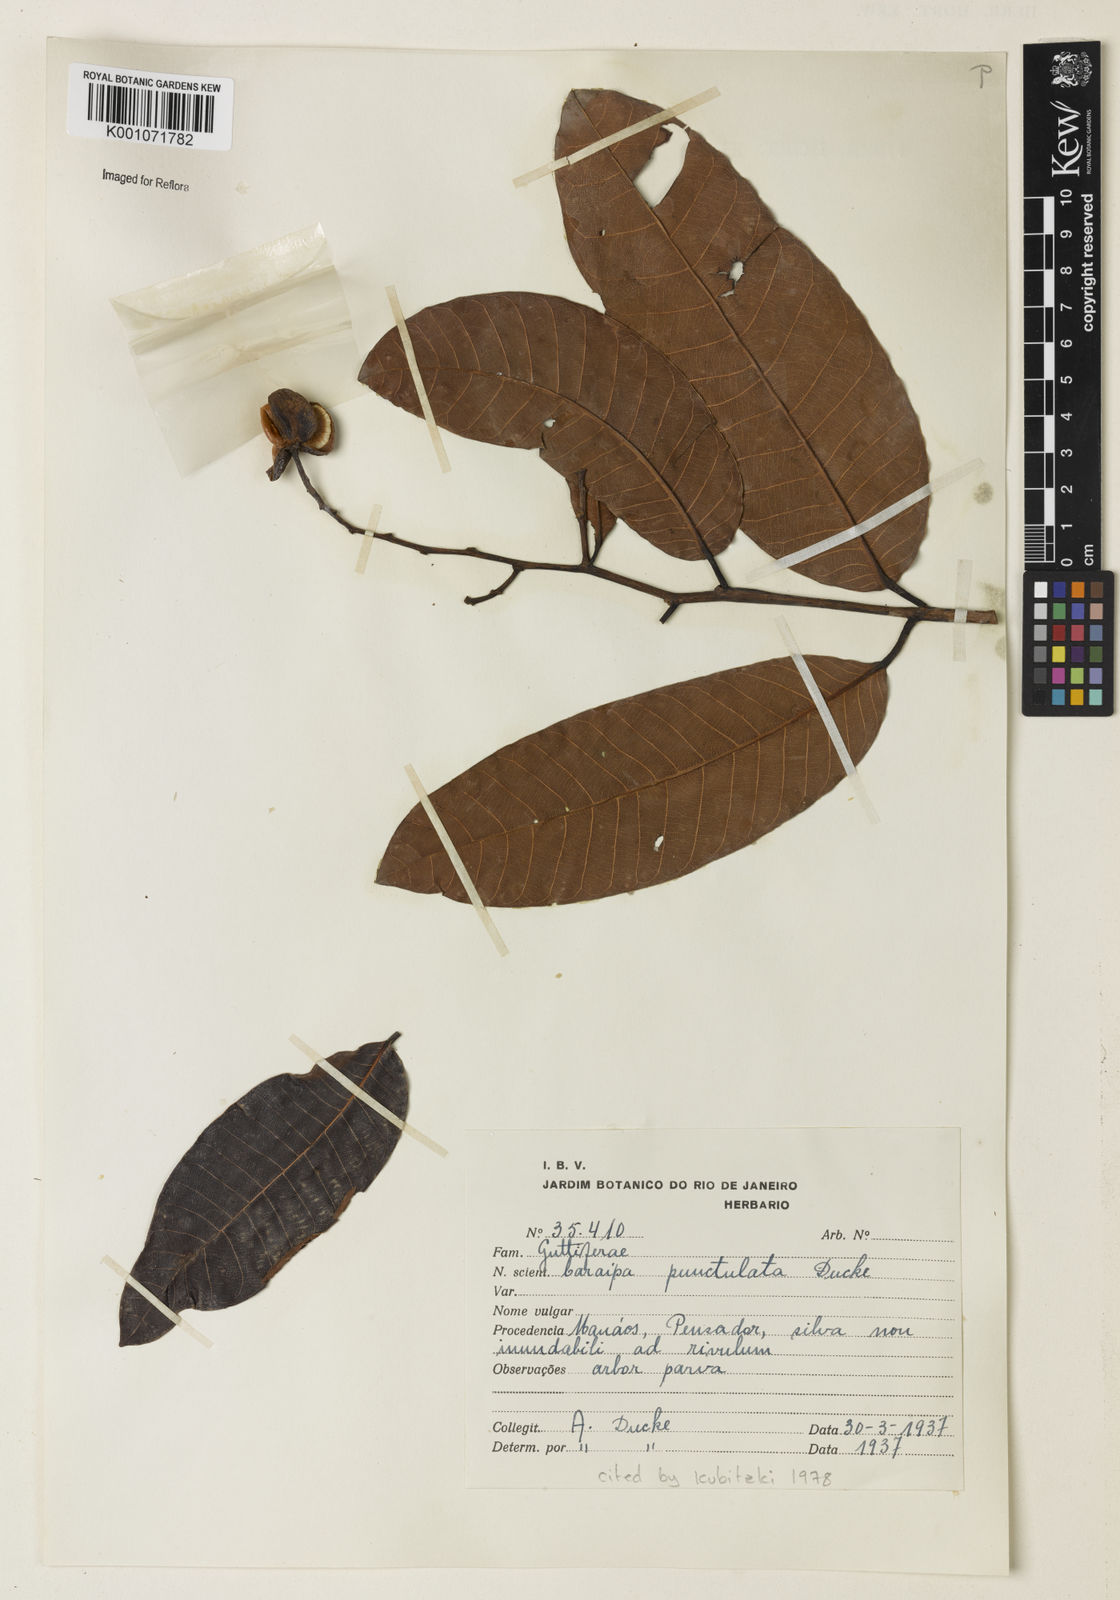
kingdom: Plantae
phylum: Tracheophyta
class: Magnoliopsida
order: Malpighiales
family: Calophyllaceae
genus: Caraipa
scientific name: Caraipa punctulata
